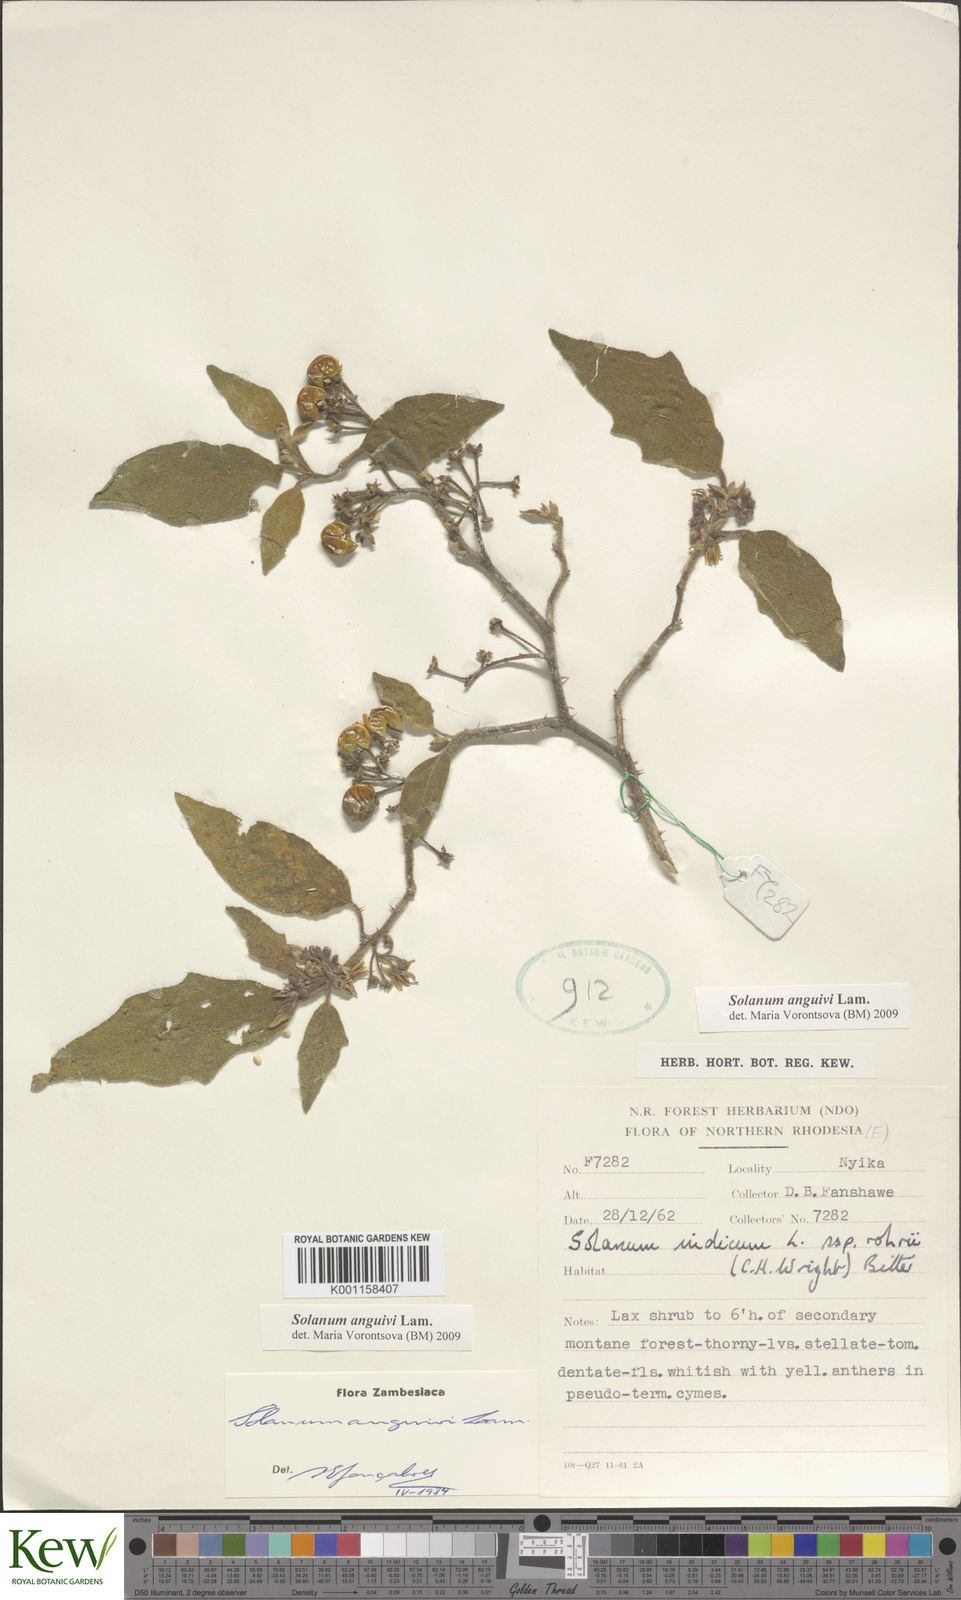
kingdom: Plantae
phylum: Tracheophyta
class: Magnoliopsida
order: Solanales
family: Solanaceae
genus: Solanum
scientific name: Solanum anguivi
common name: Forest bitterberry
